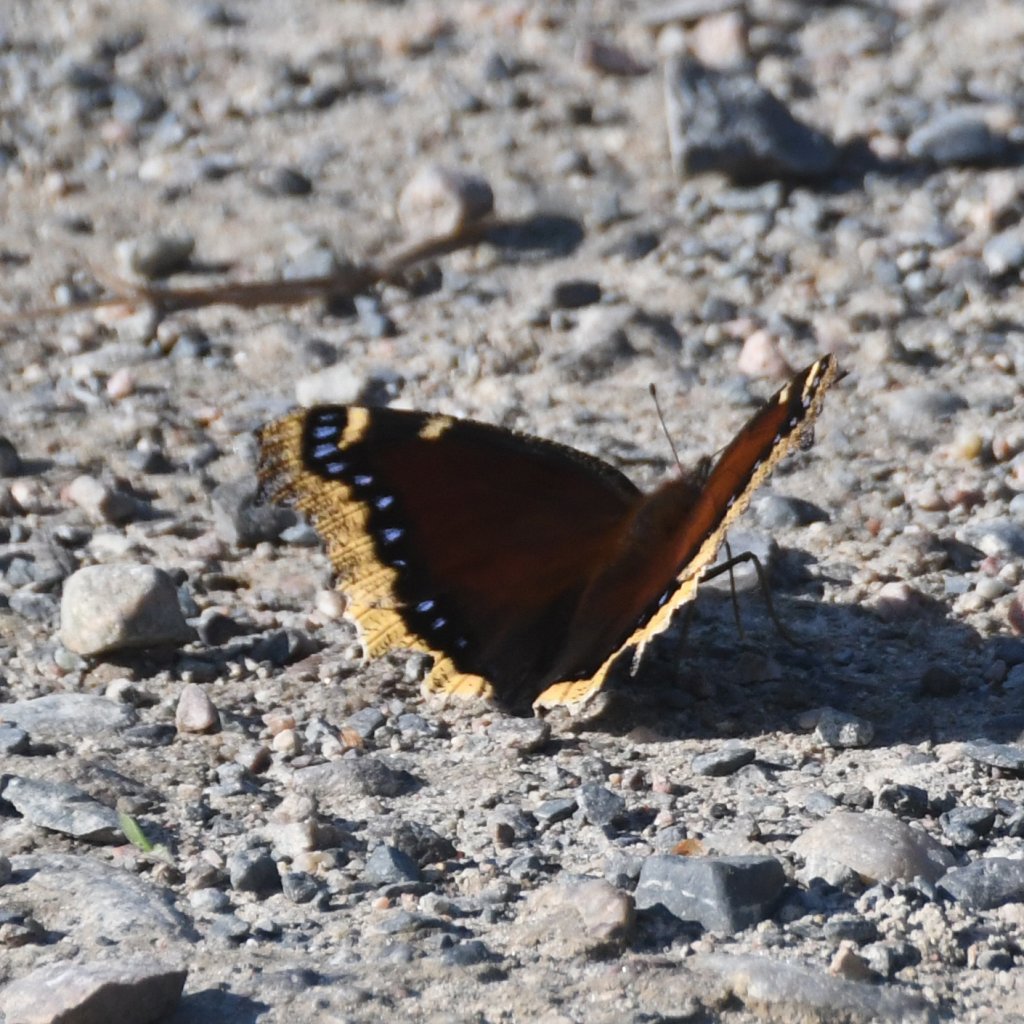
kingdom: Animalia
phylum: Arthropoda
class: Insecta
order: Lepidoptera
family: Nymphalidae
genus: Nymphalis
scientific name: Nymphalis antiopa
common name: Mourning Cloak
